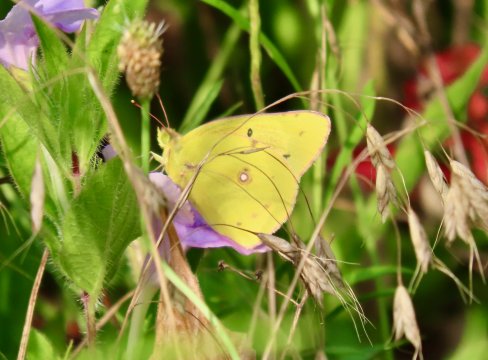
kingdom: Animalia
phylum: Arthropoda
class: Insecta
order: Lepidoptera
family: Pieridae
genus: Colias
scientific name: Colias eurytheme
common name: Orange Sulphur
